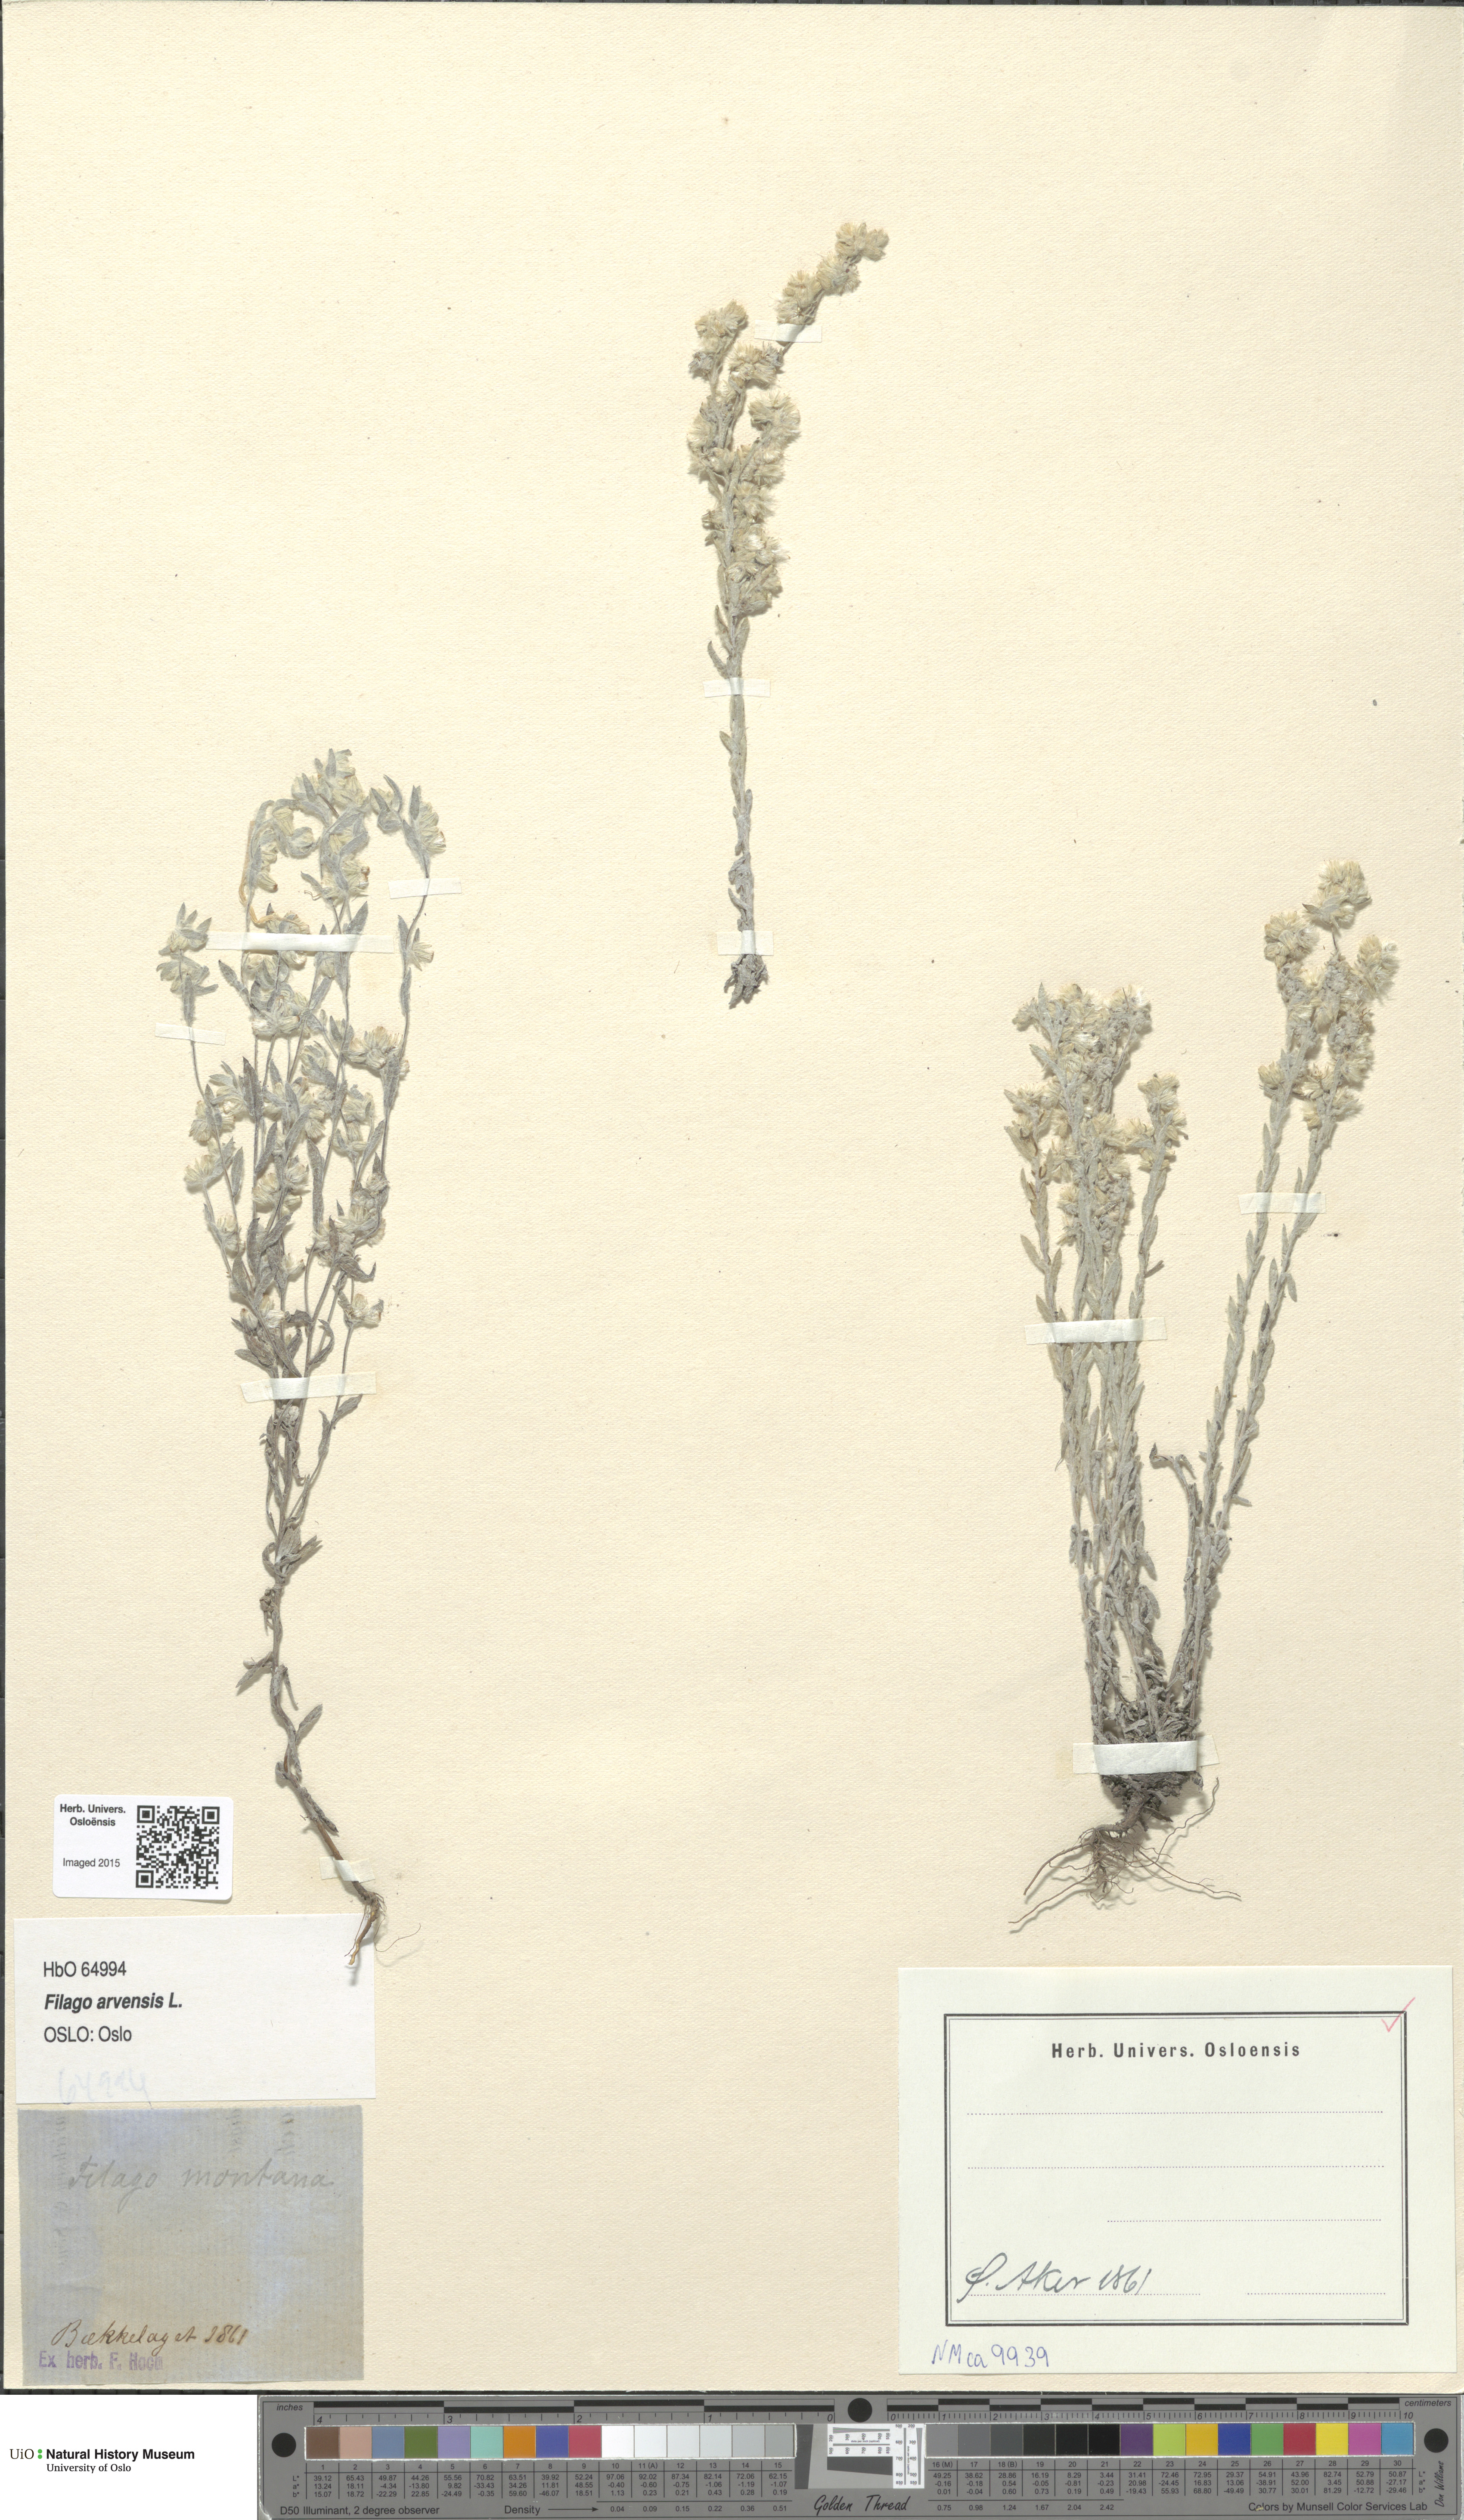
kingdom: Plantae
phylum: Tracheophyta
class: Magnoliopsida
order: Asterales
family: Asteraceae
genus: Filago
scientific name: Filago arvensis
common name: Field cudweed
